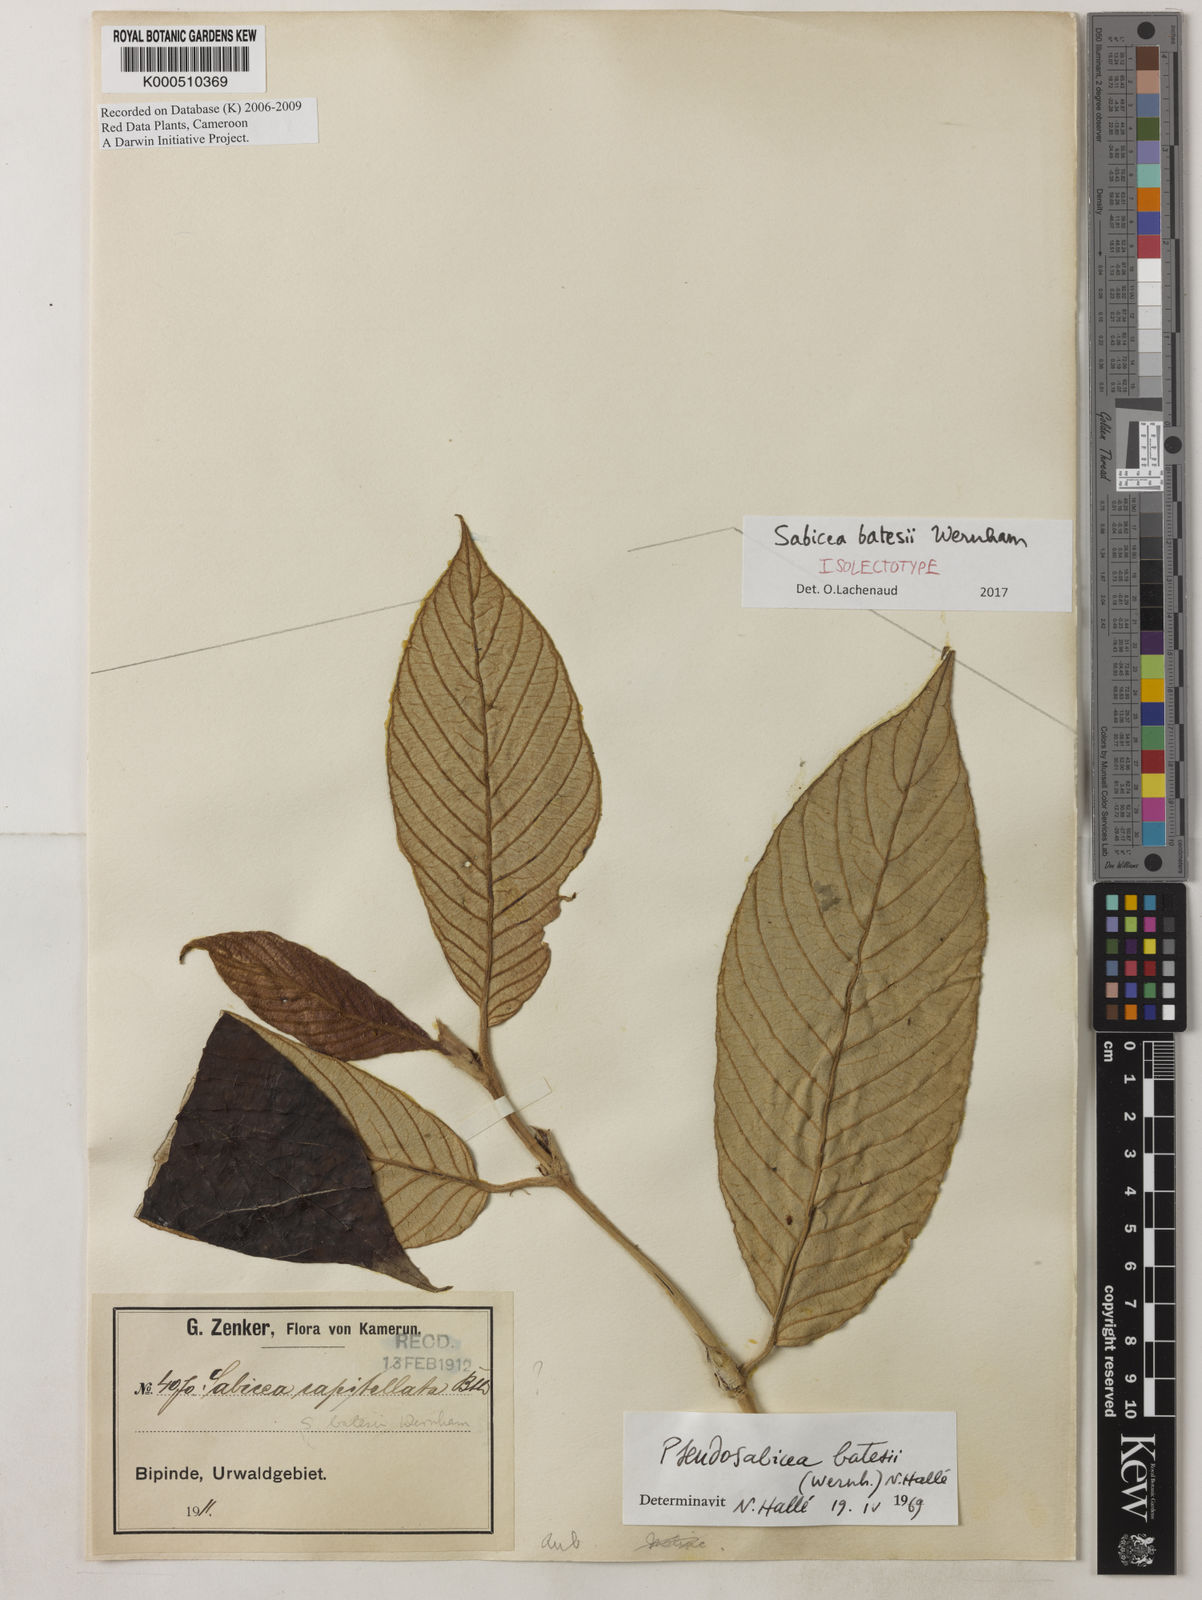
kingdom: Plantae
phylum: Tracheophyta
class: Magnoliopsida
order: Gentianales
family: Rubiaceae
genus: Sabicea
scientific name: Sabicea batesii
